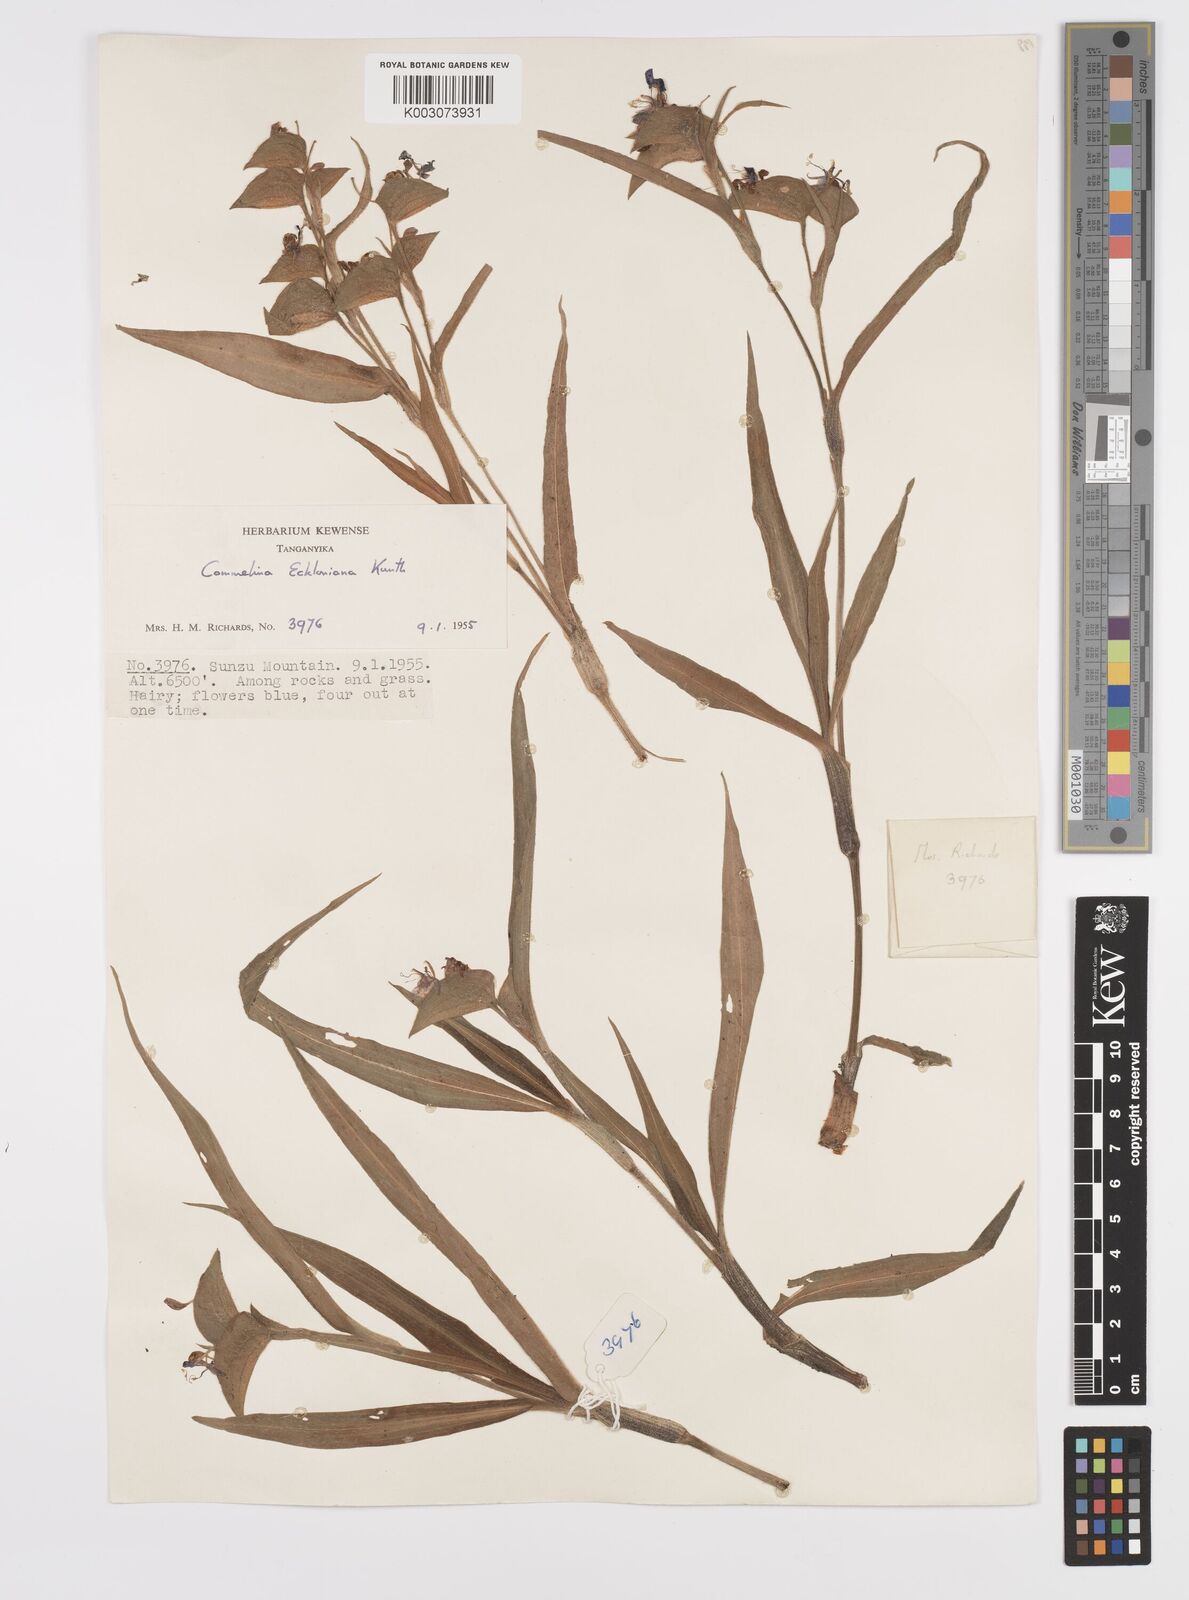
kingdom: Plantae
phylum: Tracheophyta
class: Liliopsida
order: Commelinales
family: Commelinaceae
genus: Commelina
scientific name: Commelina eckloniana
